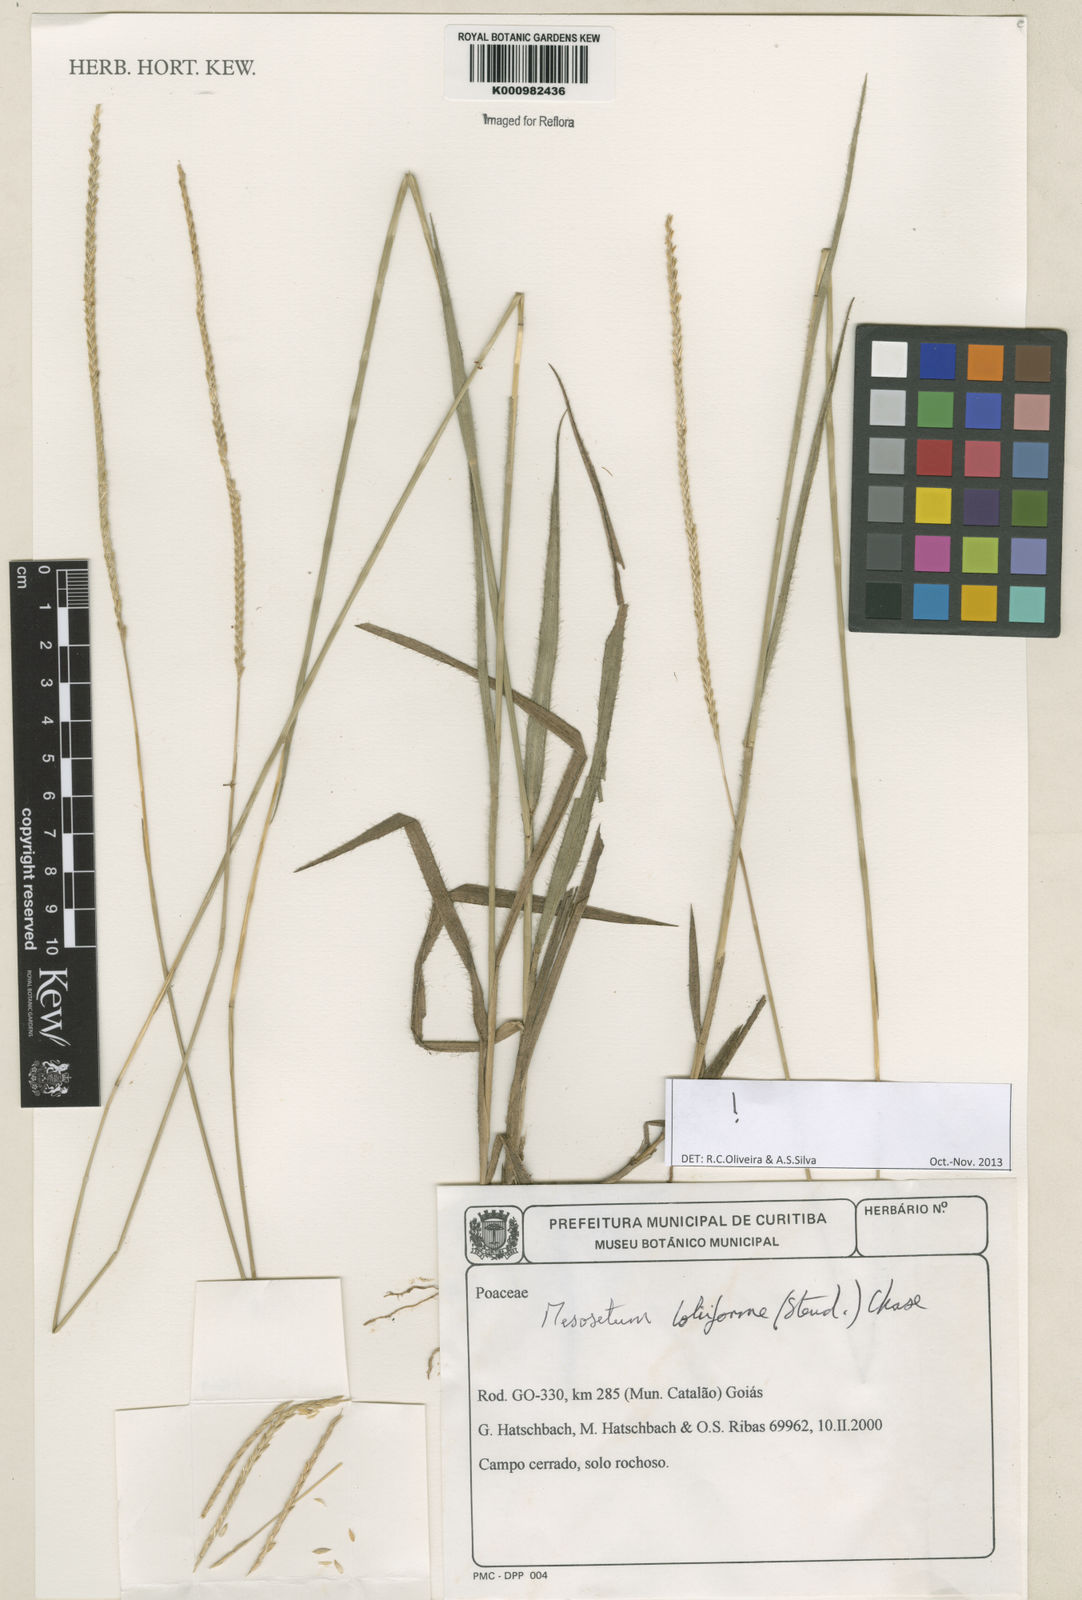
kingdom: Plantae
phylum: Tracheophyta
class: Liliopsida
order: Poales
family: Poaceae
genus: Mesosetum
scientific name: Mesosetum
